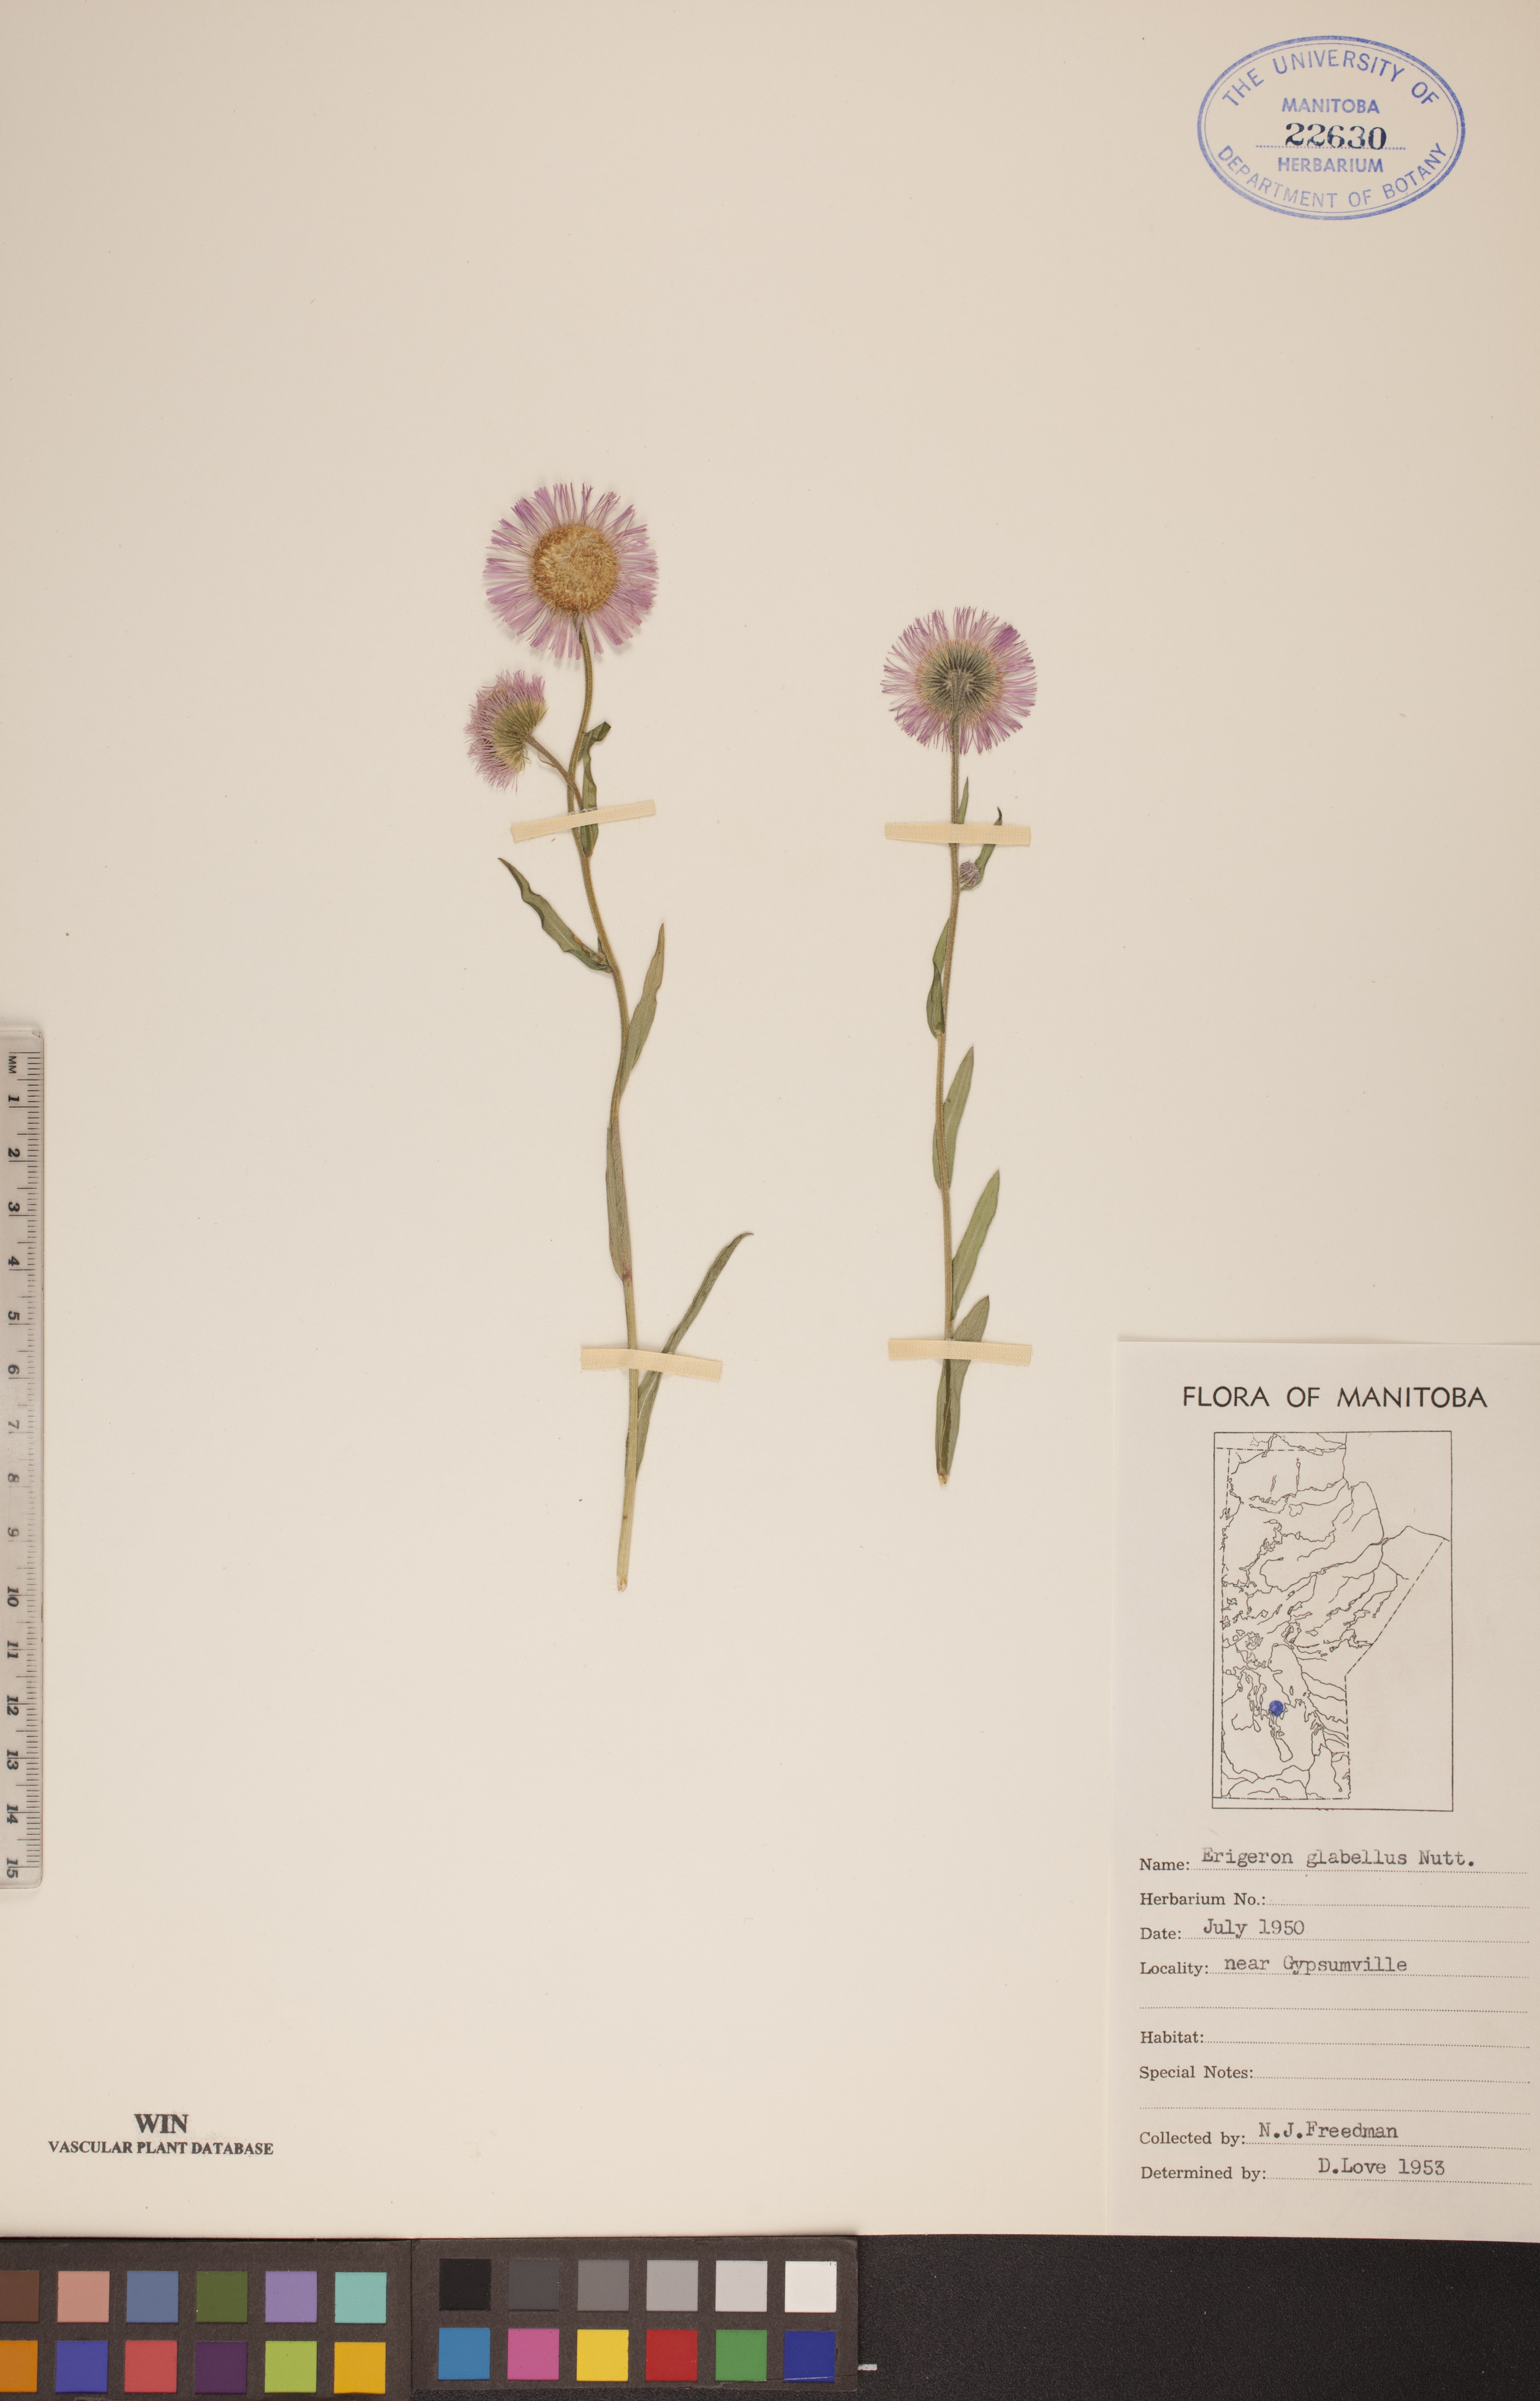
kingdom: Plantae
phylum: Tracheophyta
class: Magnoliopsida
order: Asterales
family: Asteraceae
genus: Erigeron
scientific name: Erigeron glabellus
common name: Smooth fleabane
